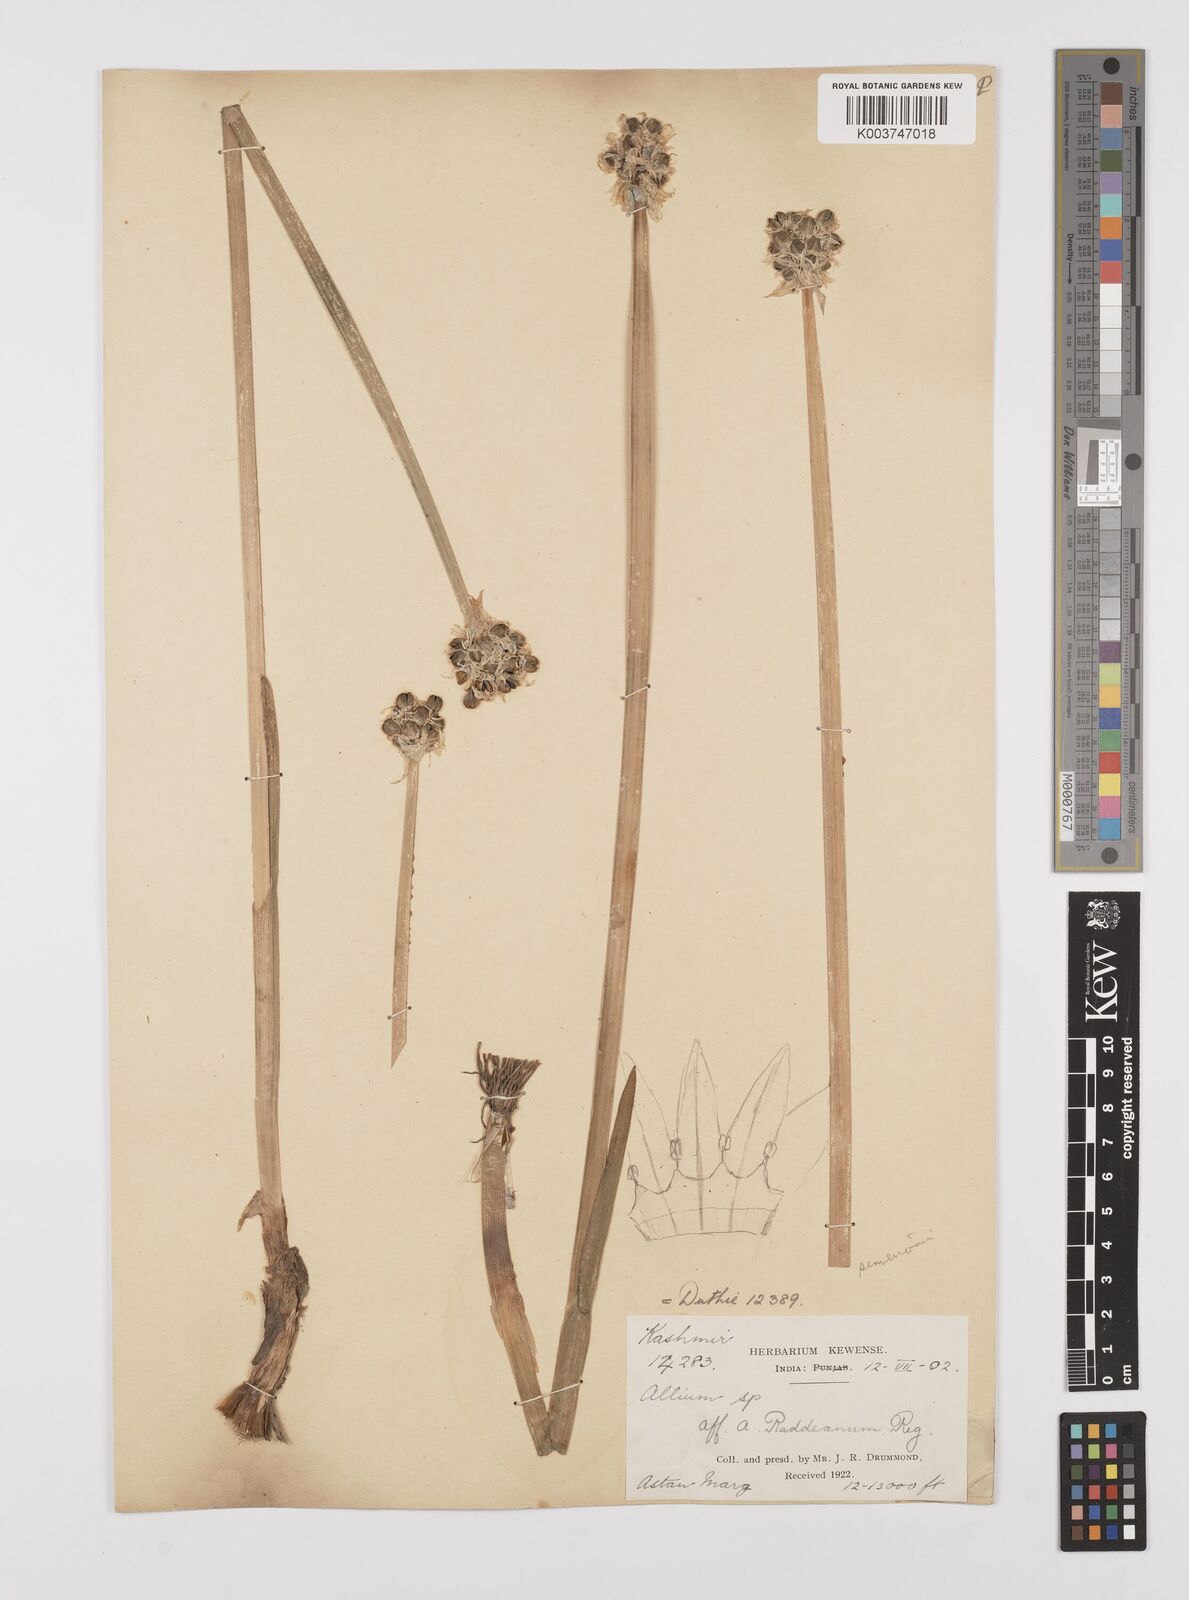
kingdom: Plantae
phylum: Tracheophyta
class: Liliopsida
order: Asparagales
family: Amaryllidaceae
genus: Allium
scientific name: Allium semenovii
